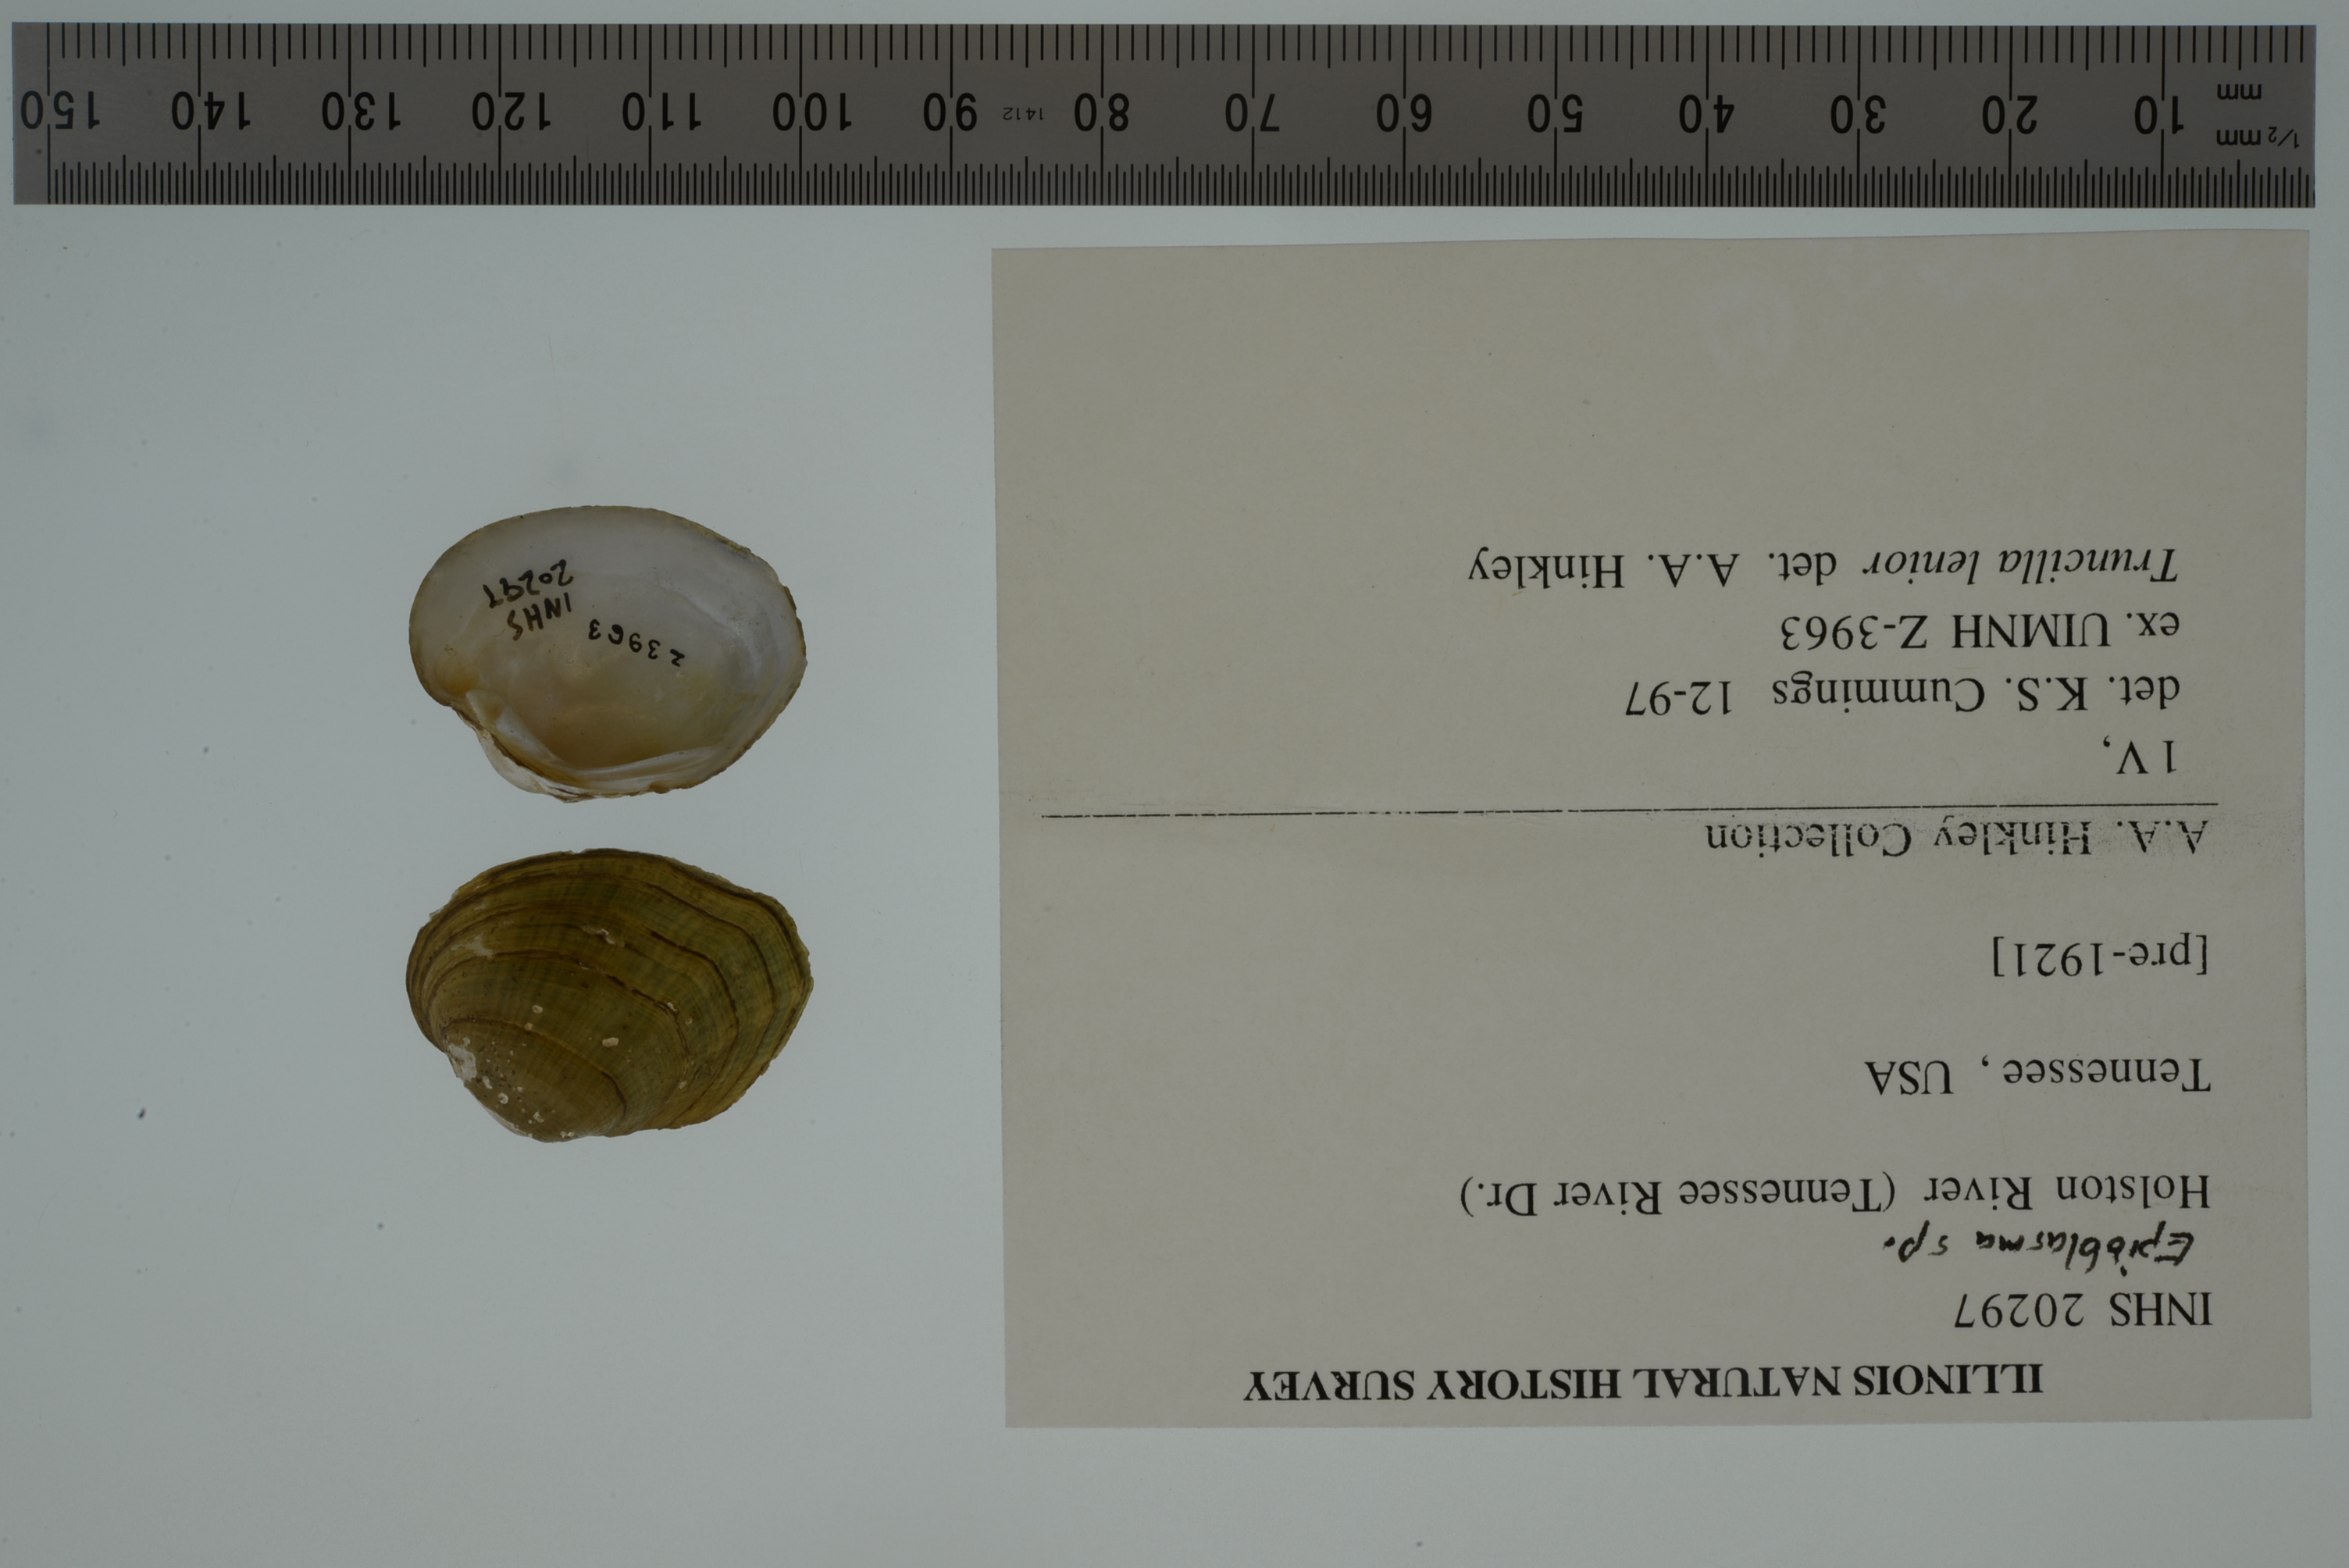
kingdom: Animalia
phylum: Mollusca
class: Bivalvia
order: Unionida
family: Unionidae
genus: Epioblasma
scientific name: Epioblasma
